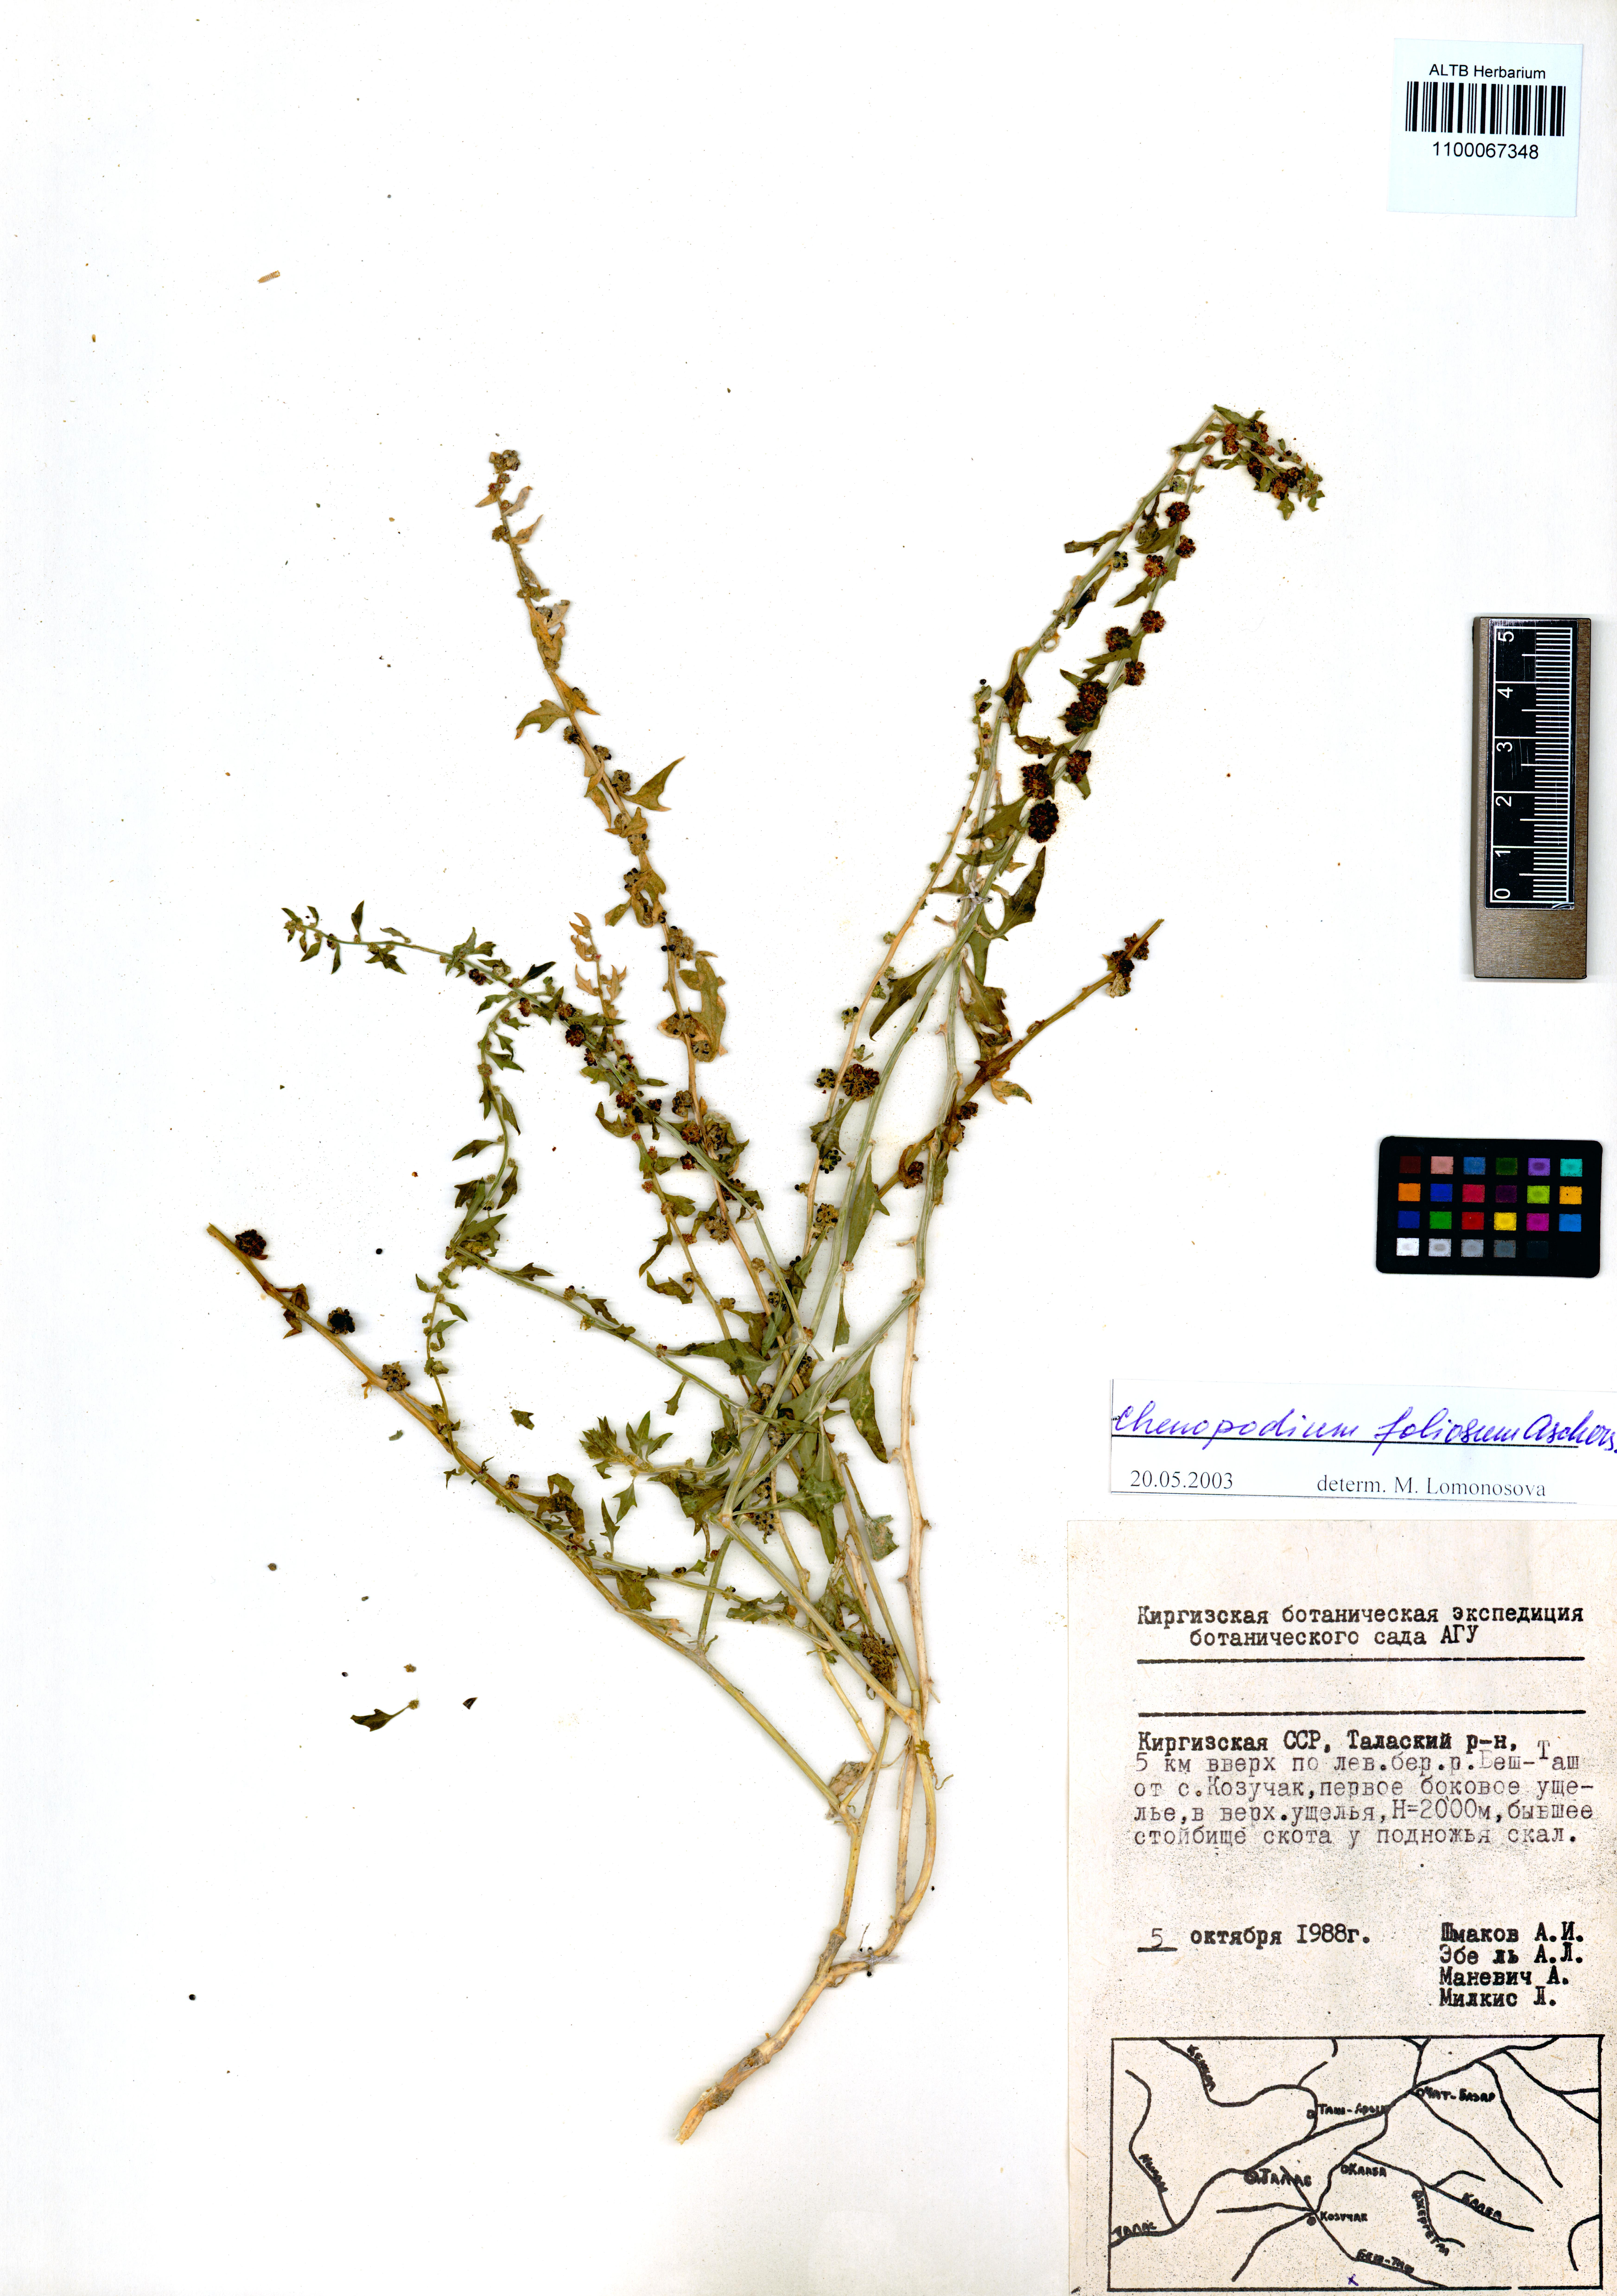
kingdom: Plantae
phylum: Tracheophyta
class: Magnoliopsida
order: Caryophyllales
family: Amaranthaceae
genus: Blitum
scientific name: Blitum virgatum
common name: Strawberry goosefoot
